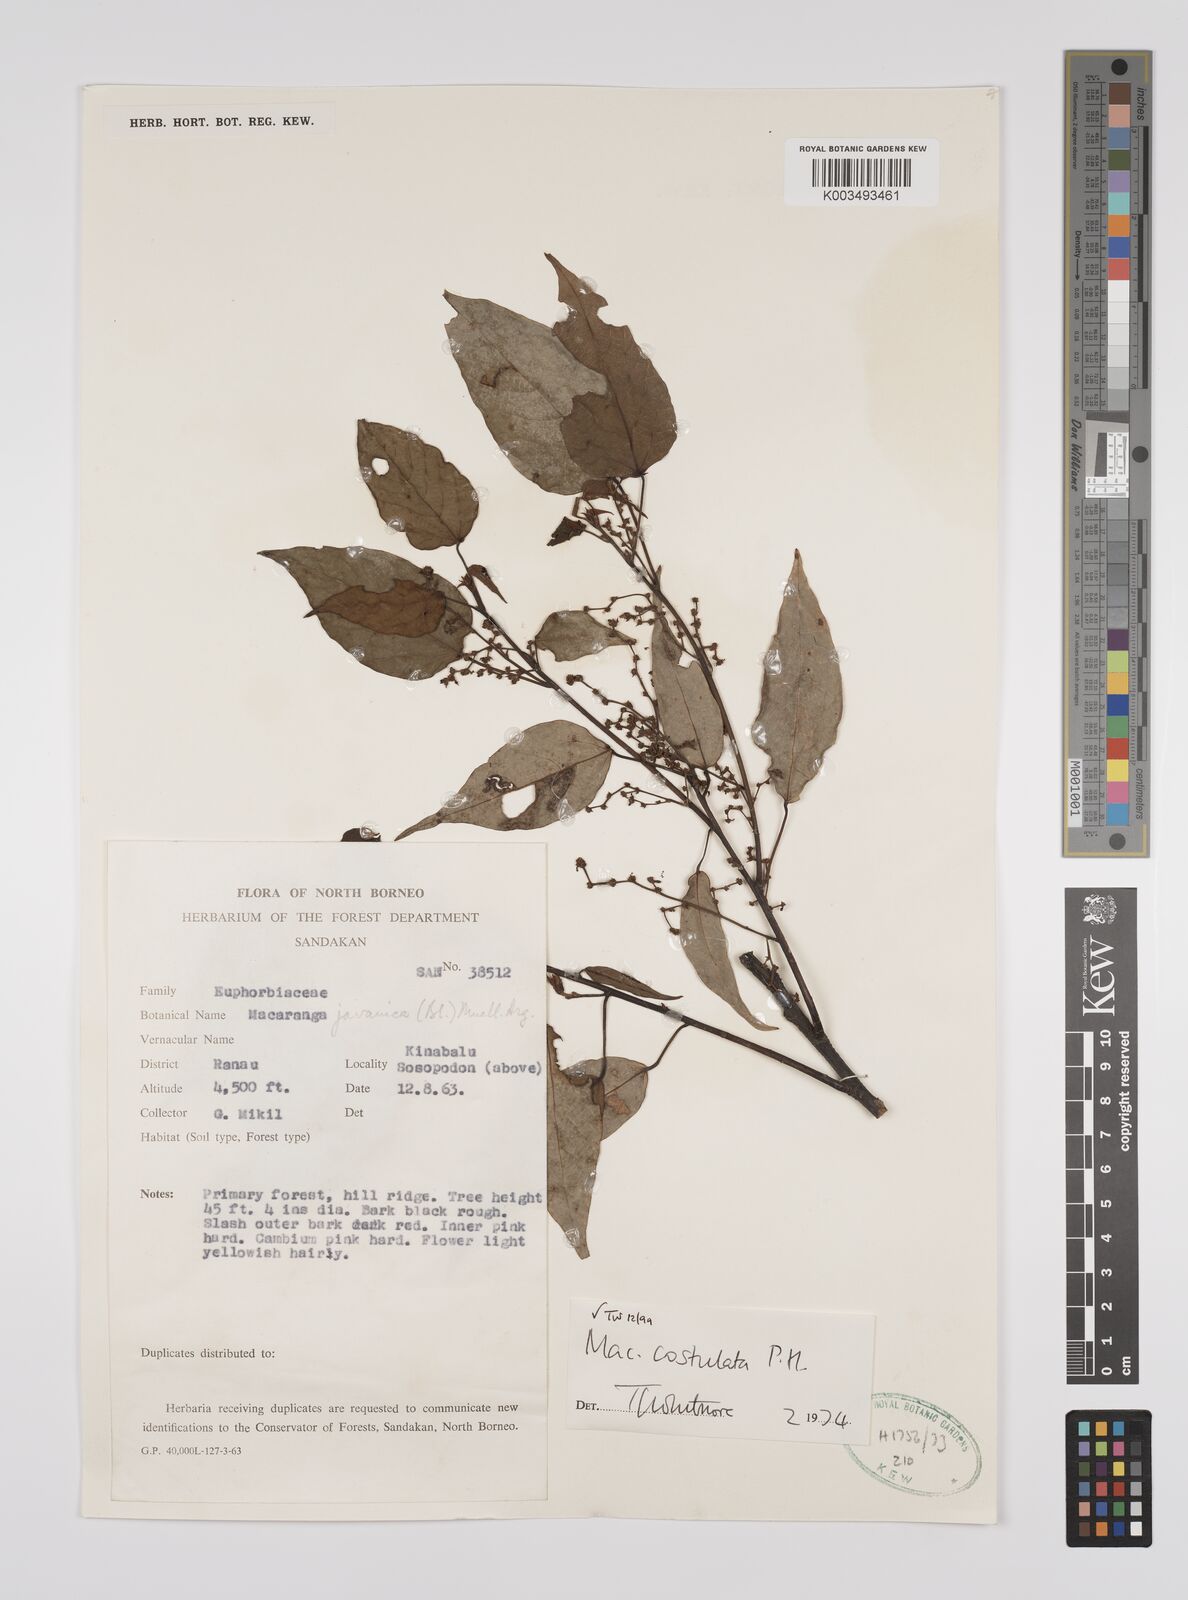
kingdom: Plantae
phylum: Tracheophyta
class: Magnoliopsida
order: Malpighiales
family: Euphorbiaceae
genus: Macaranga
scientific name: Macaranga costulata
